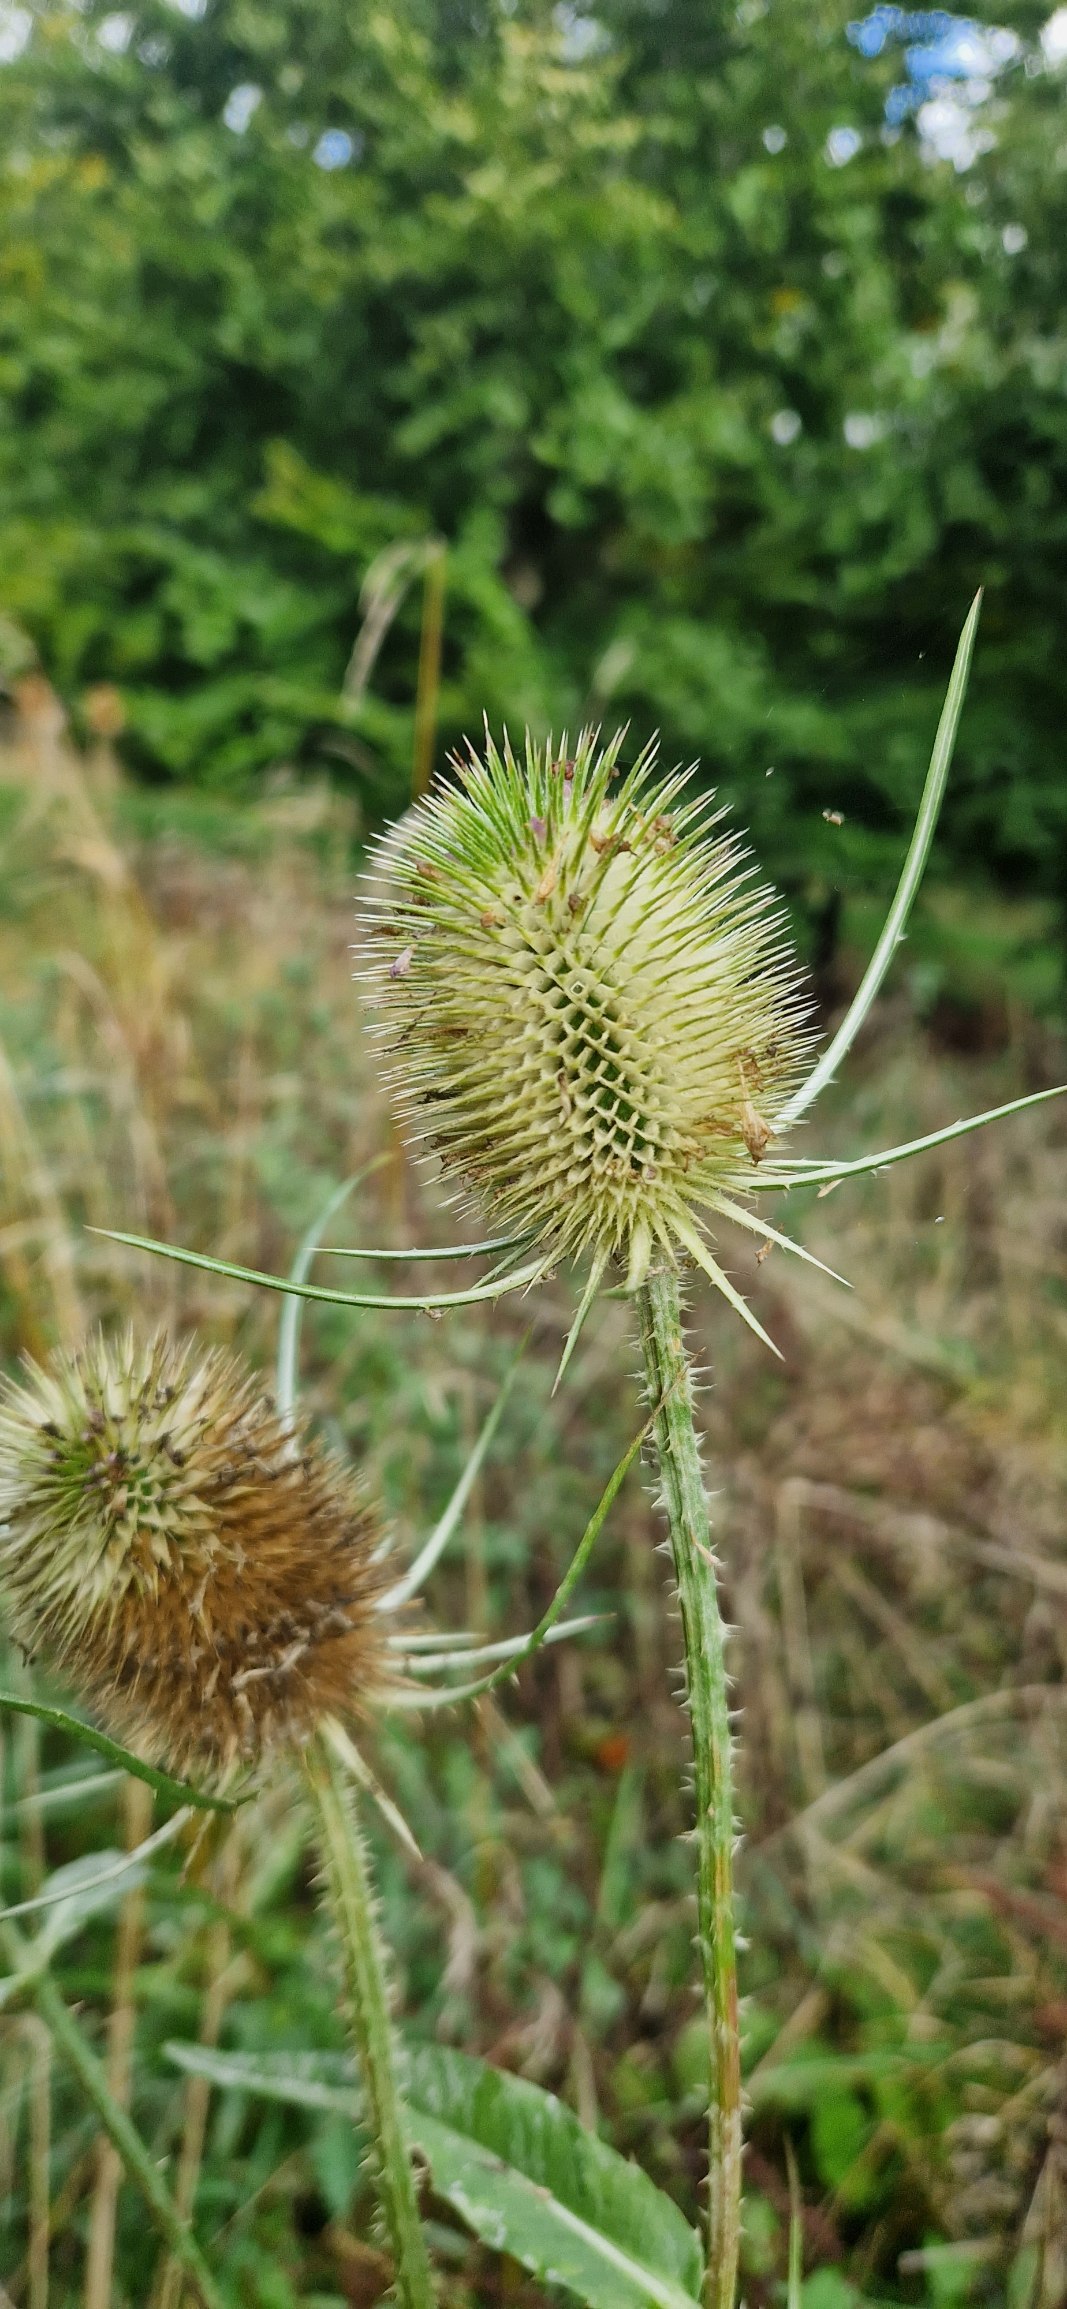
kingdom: Plantae
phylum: Tracheophyta
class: Magnoliopsida
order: Dipsacales
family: Caprifoliaceae
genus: Dipsacus
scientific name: Dipsacus fullonum
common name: Gærde-kartebolle
